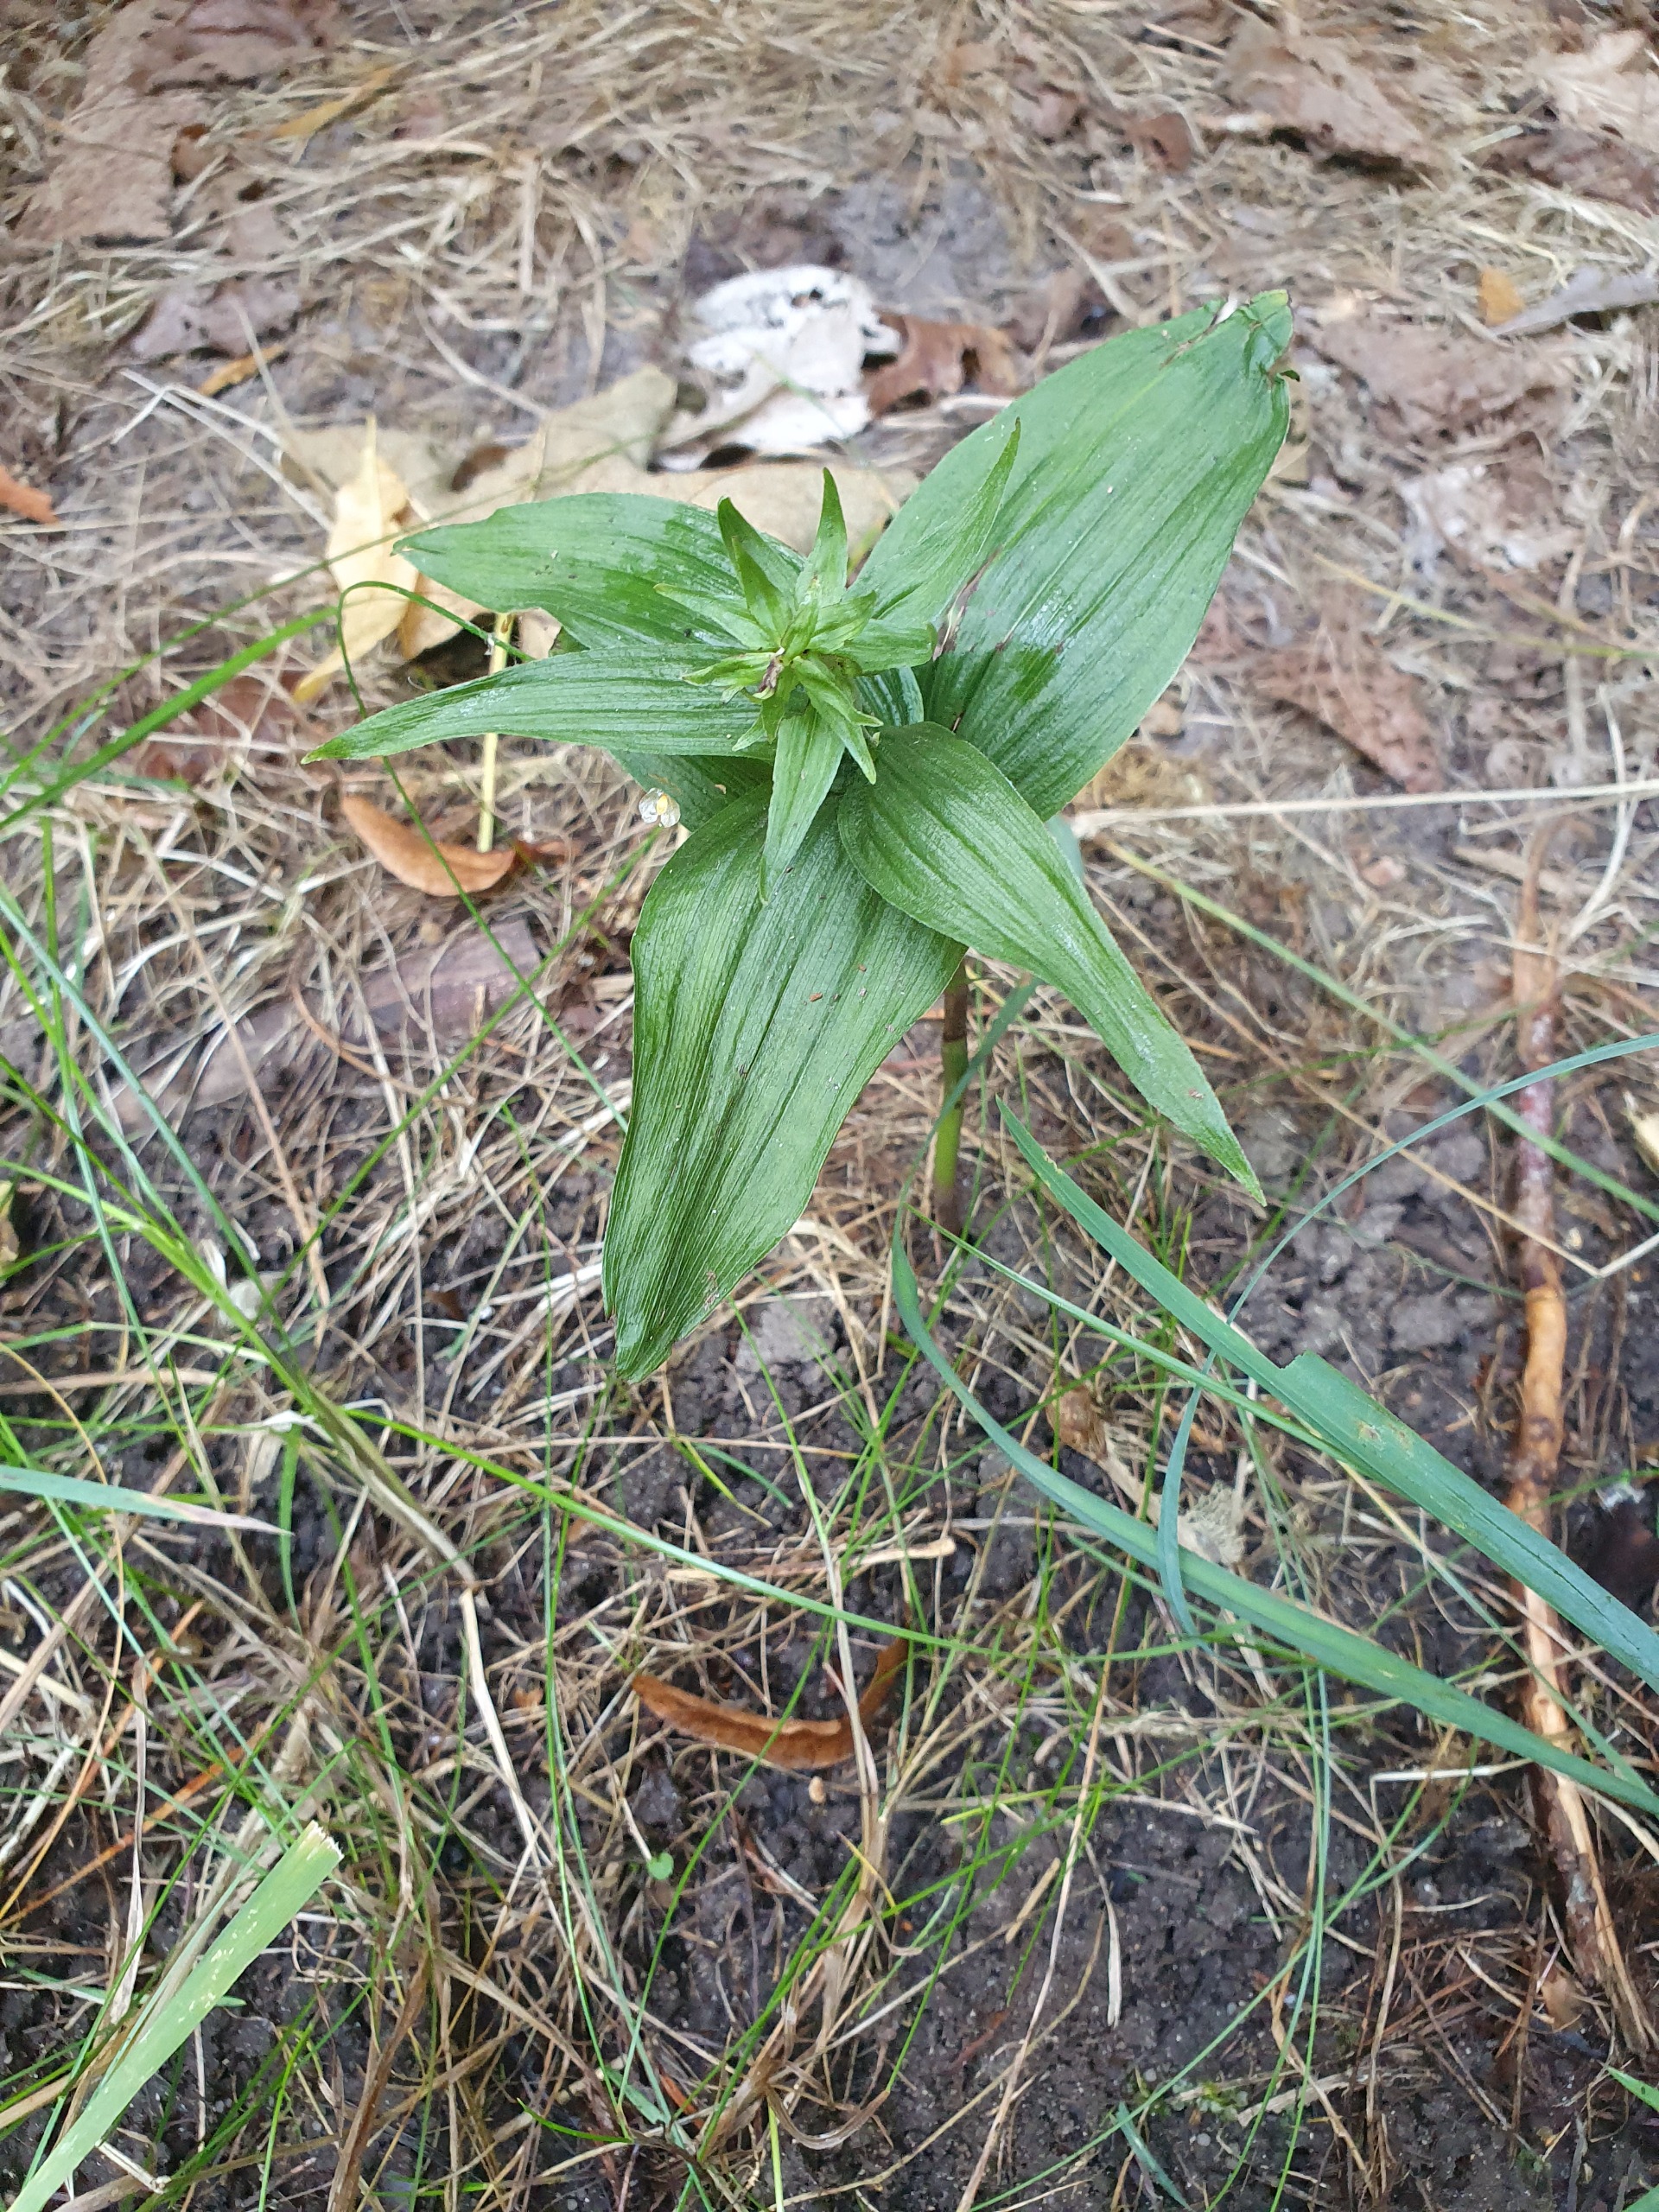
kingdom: Plantae
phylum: Tracheophyta
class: Liliopsida
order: Asparagales
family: Orchidaceae
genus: Epipactis
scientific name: Epipactis helleborine
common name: Skov-hullæbe
